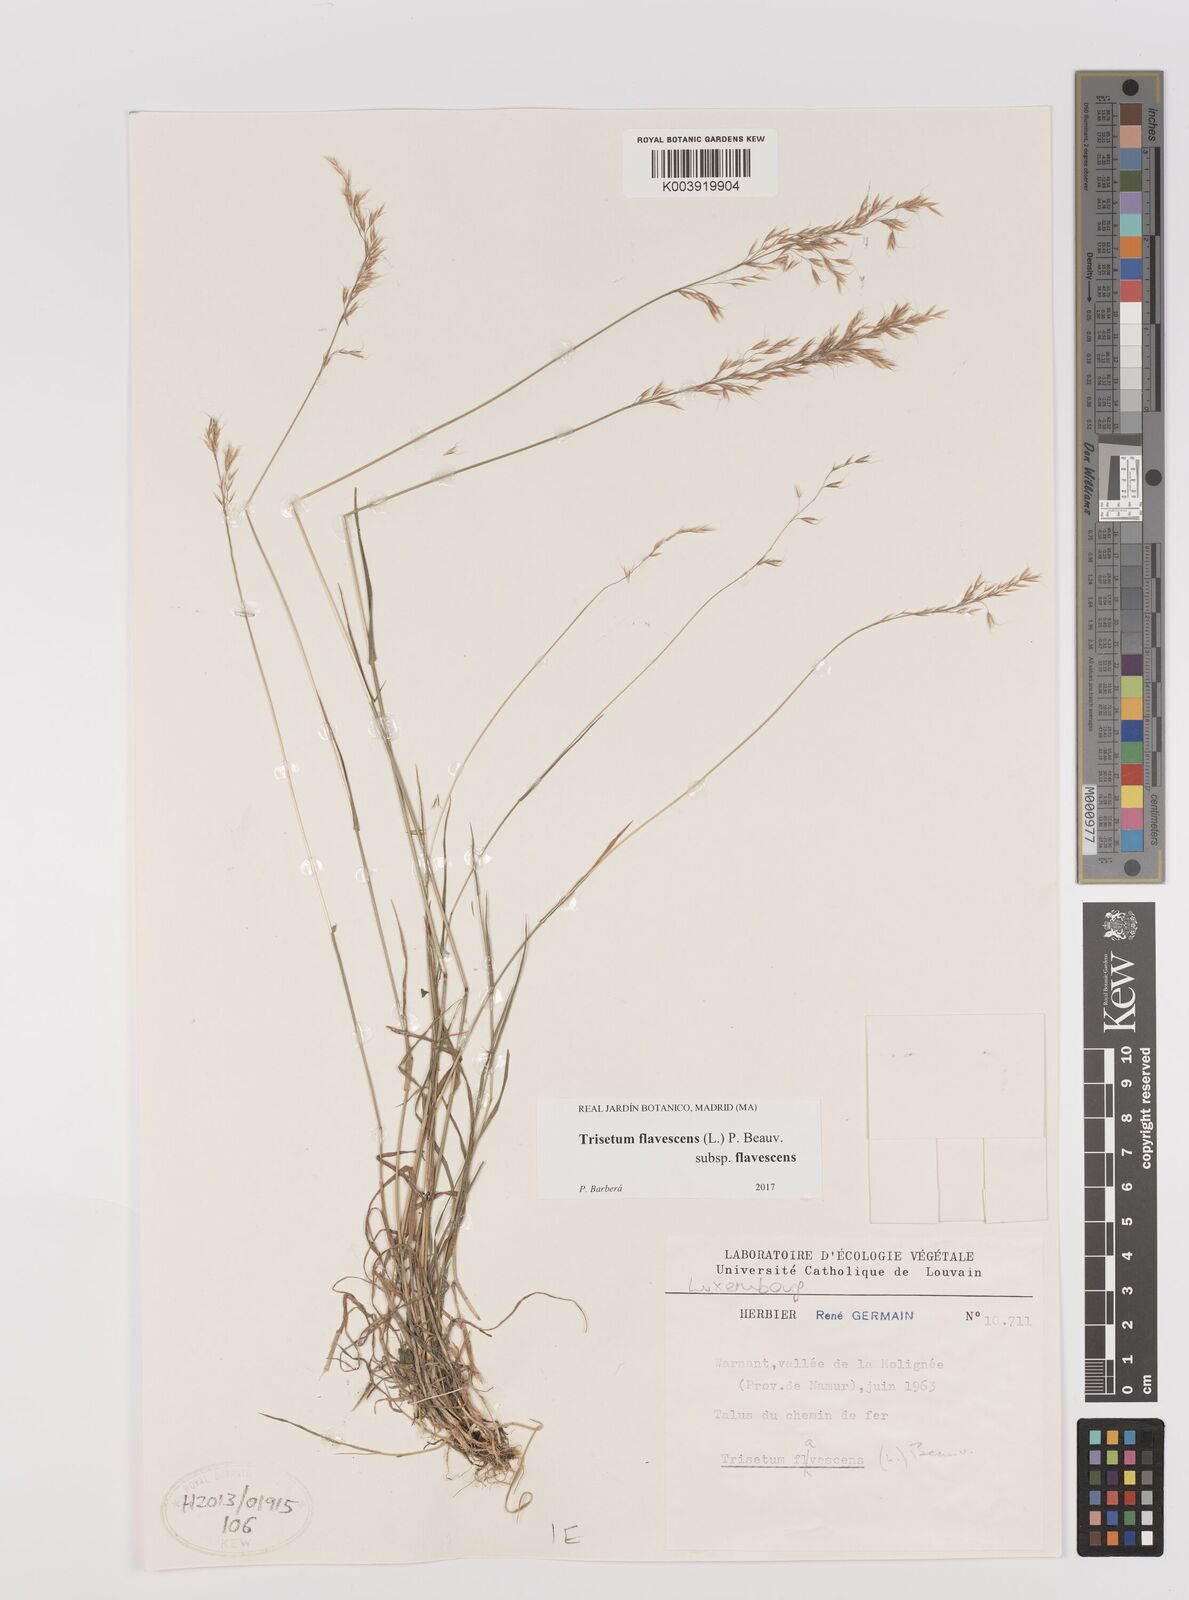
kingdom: Plantae
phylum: Tracheophyta
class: Liliopsida
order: Poales
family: Poaceae
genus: Trisetum
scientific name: Trisetum flavescens
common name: Yellow oat-grass
